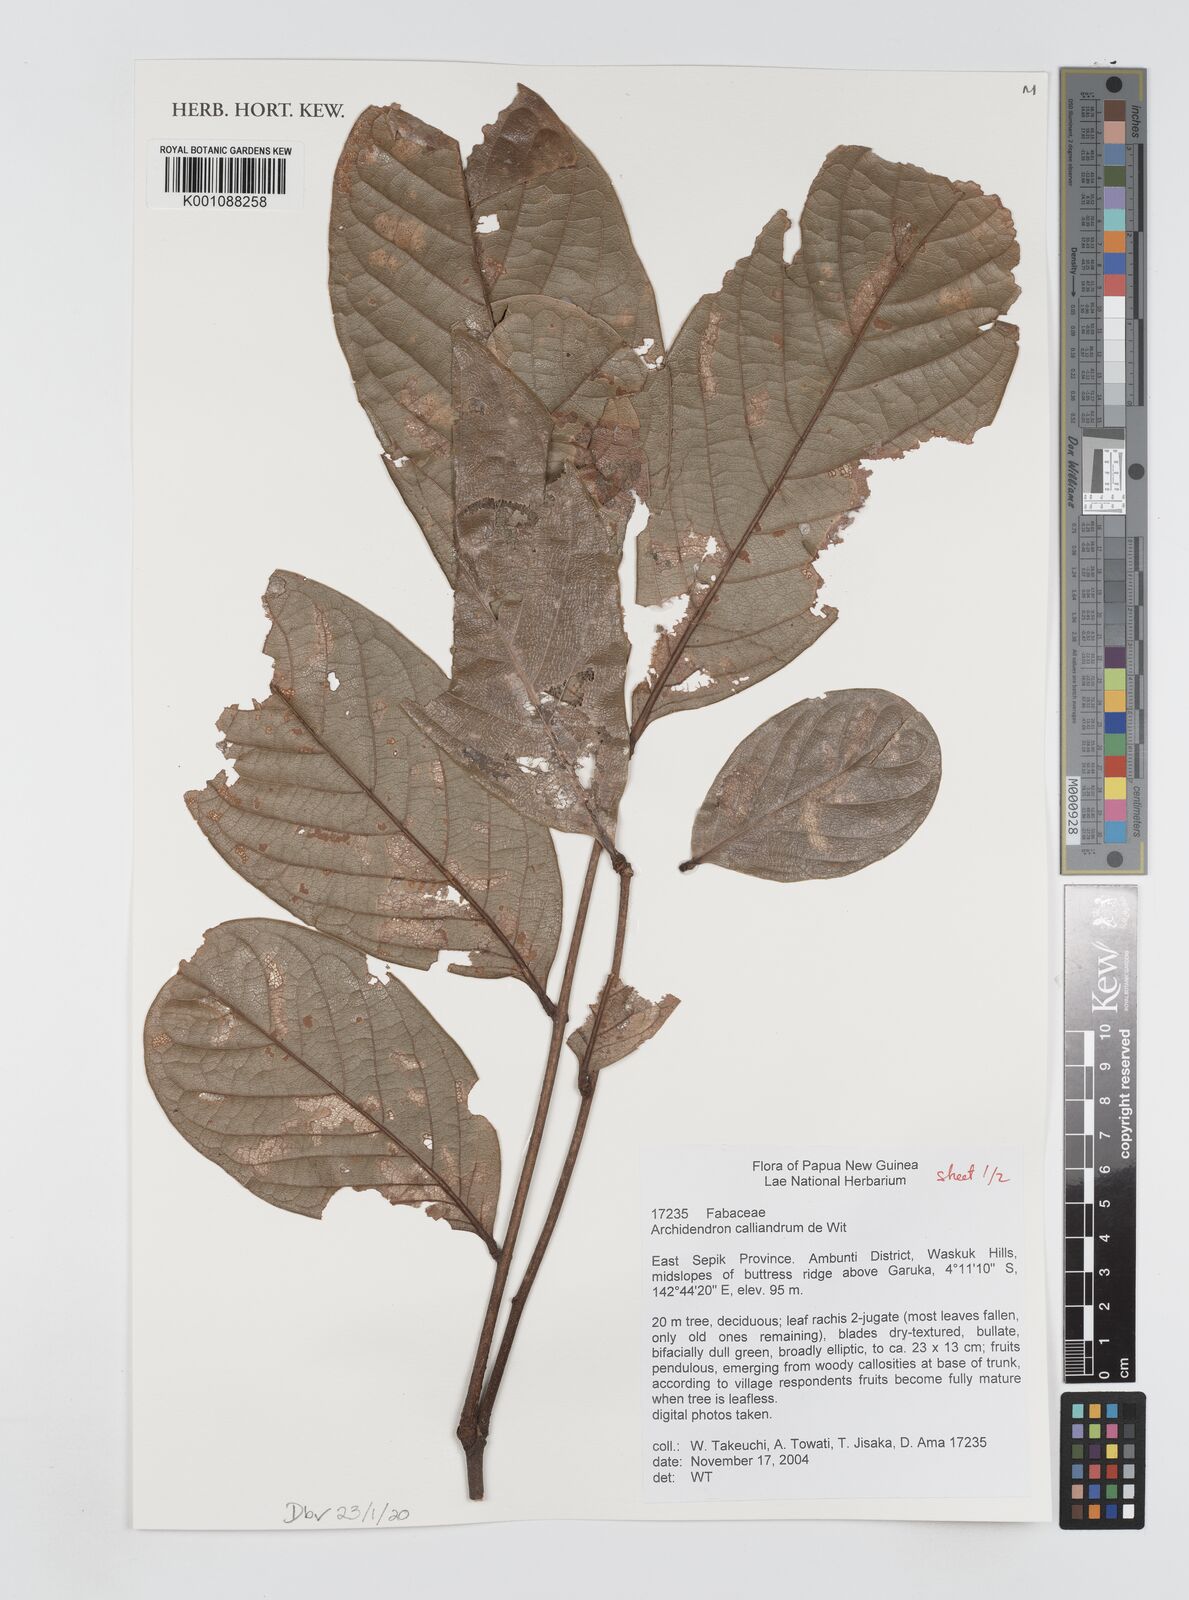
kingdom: Plantae
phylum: Tracheophyta
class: Magnoliopsida
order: Fabales
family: Fabaceae
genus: Archidendron
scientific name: Archidendron calliandrum
